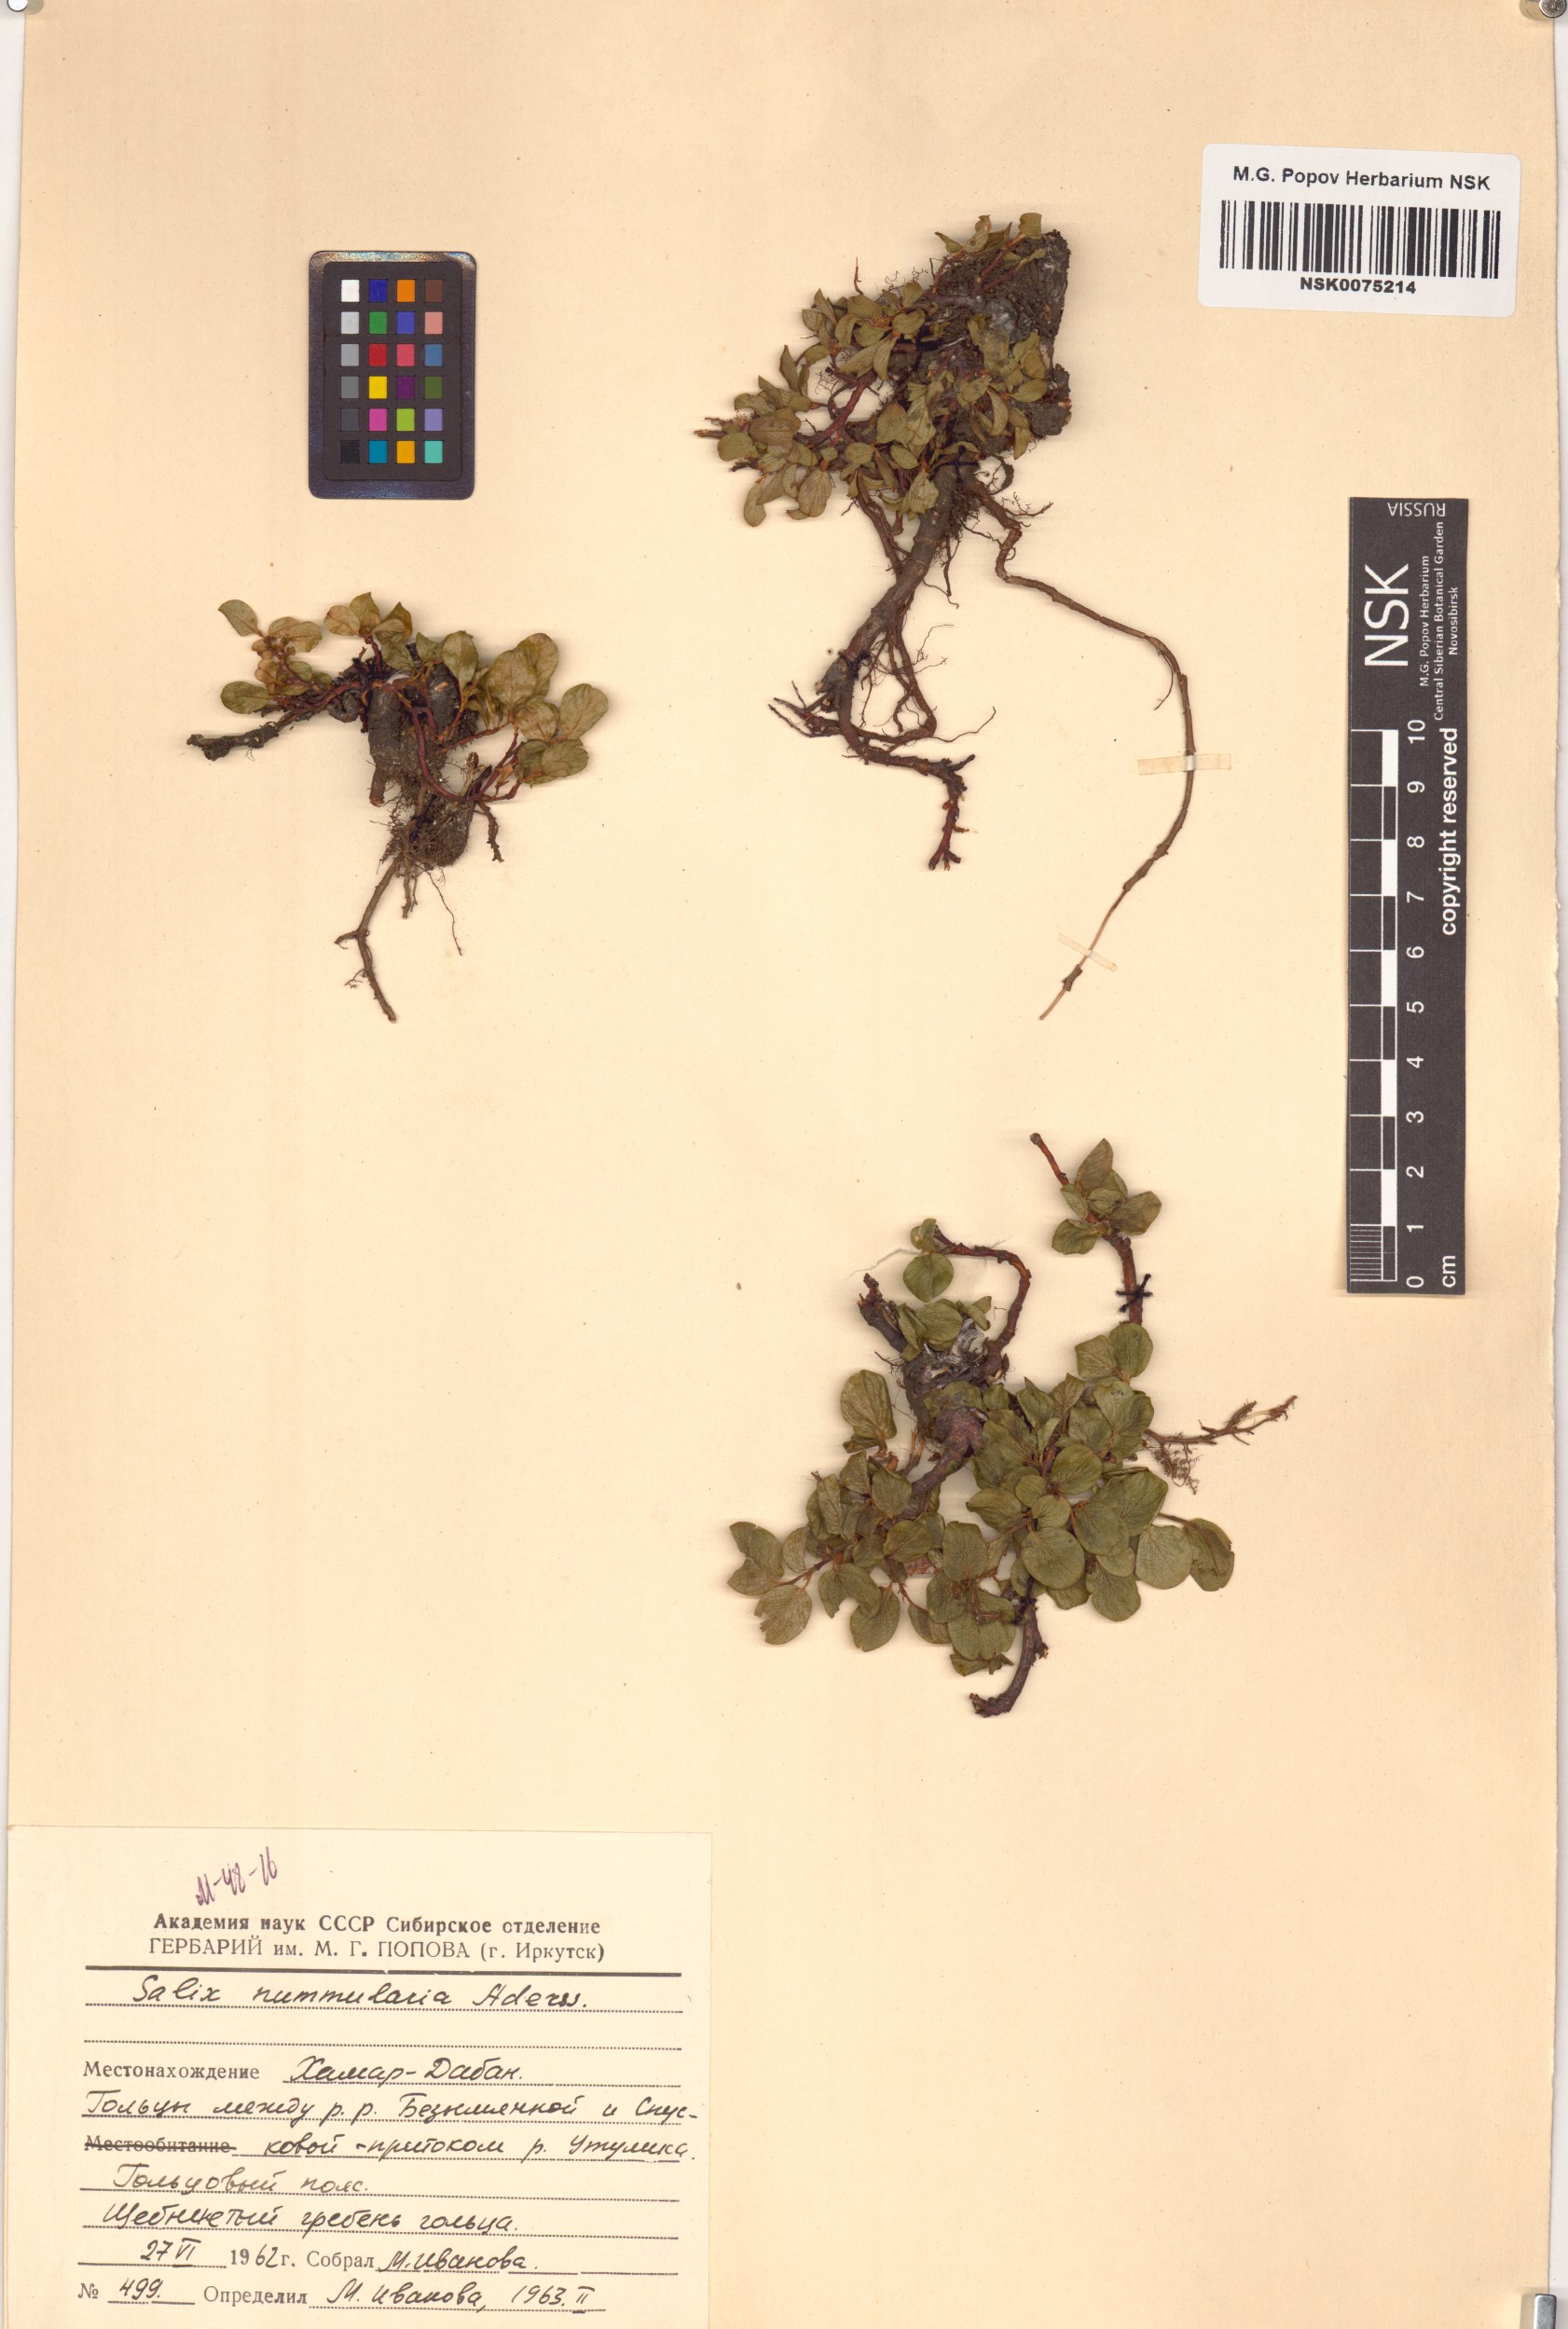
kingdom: Plantae
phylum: Tracheophyta
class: Magnoliopsida
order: Malpighiales
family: Salicaceae
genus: Salix
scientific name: Salix nummularia
